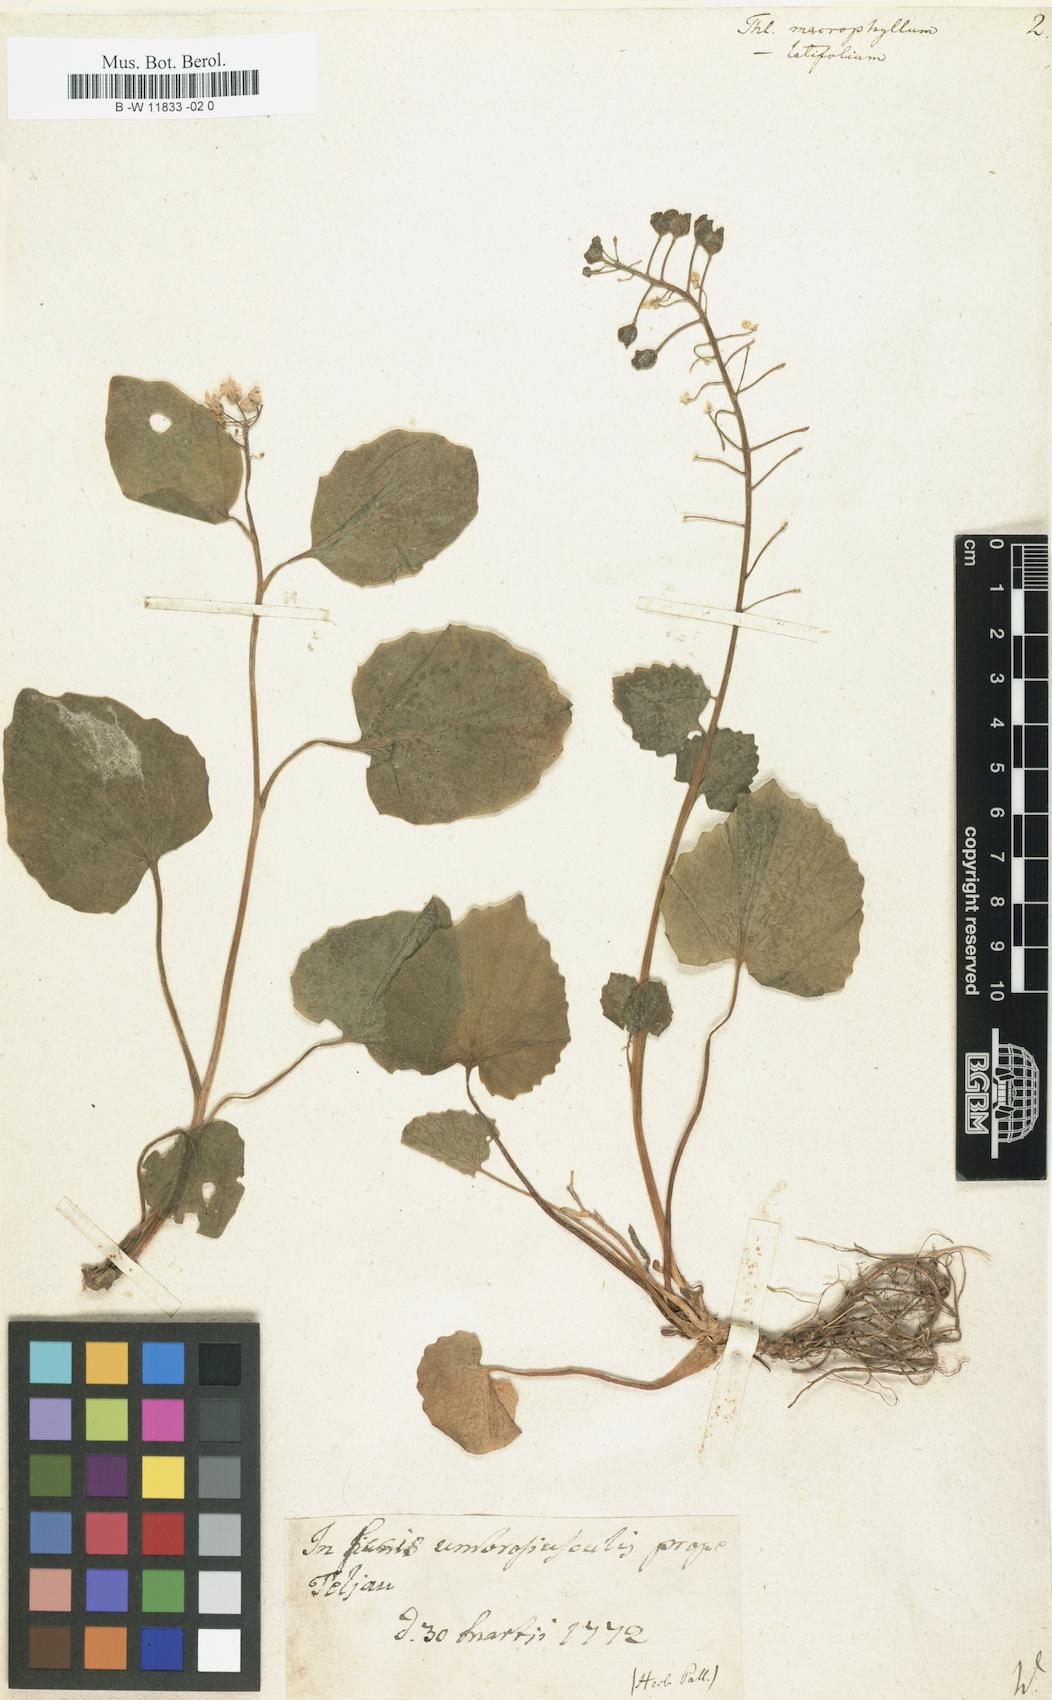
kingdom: Plantae
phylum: Tracheophyta
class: Magnoliopsida
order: Brassicales
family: Brassicaceae
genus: Pachyphragma
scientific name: Pachyphragma macrophyllum
